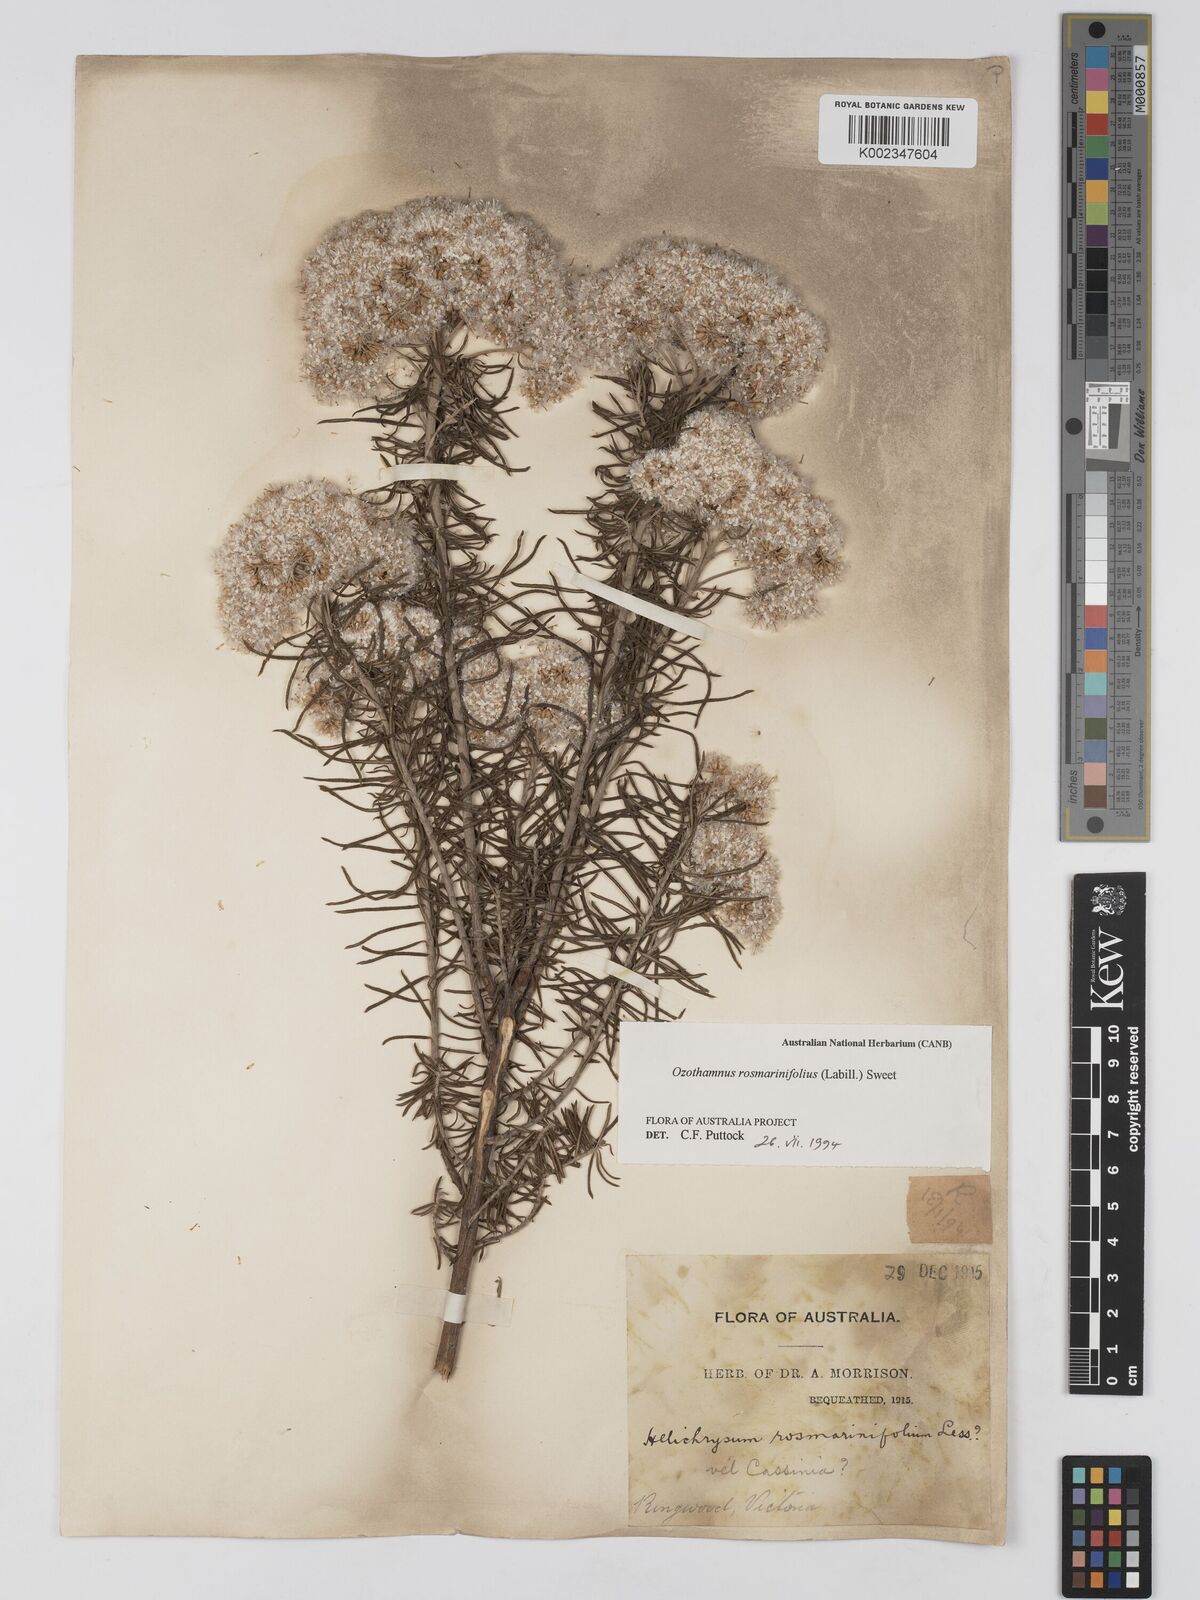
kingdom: Plantae
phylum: Tracheophyta
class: Magnoliopsida
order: Asterales
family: Asteraceae
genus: Ozothamnus
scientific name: Ozothamnus rosmarinifolius
